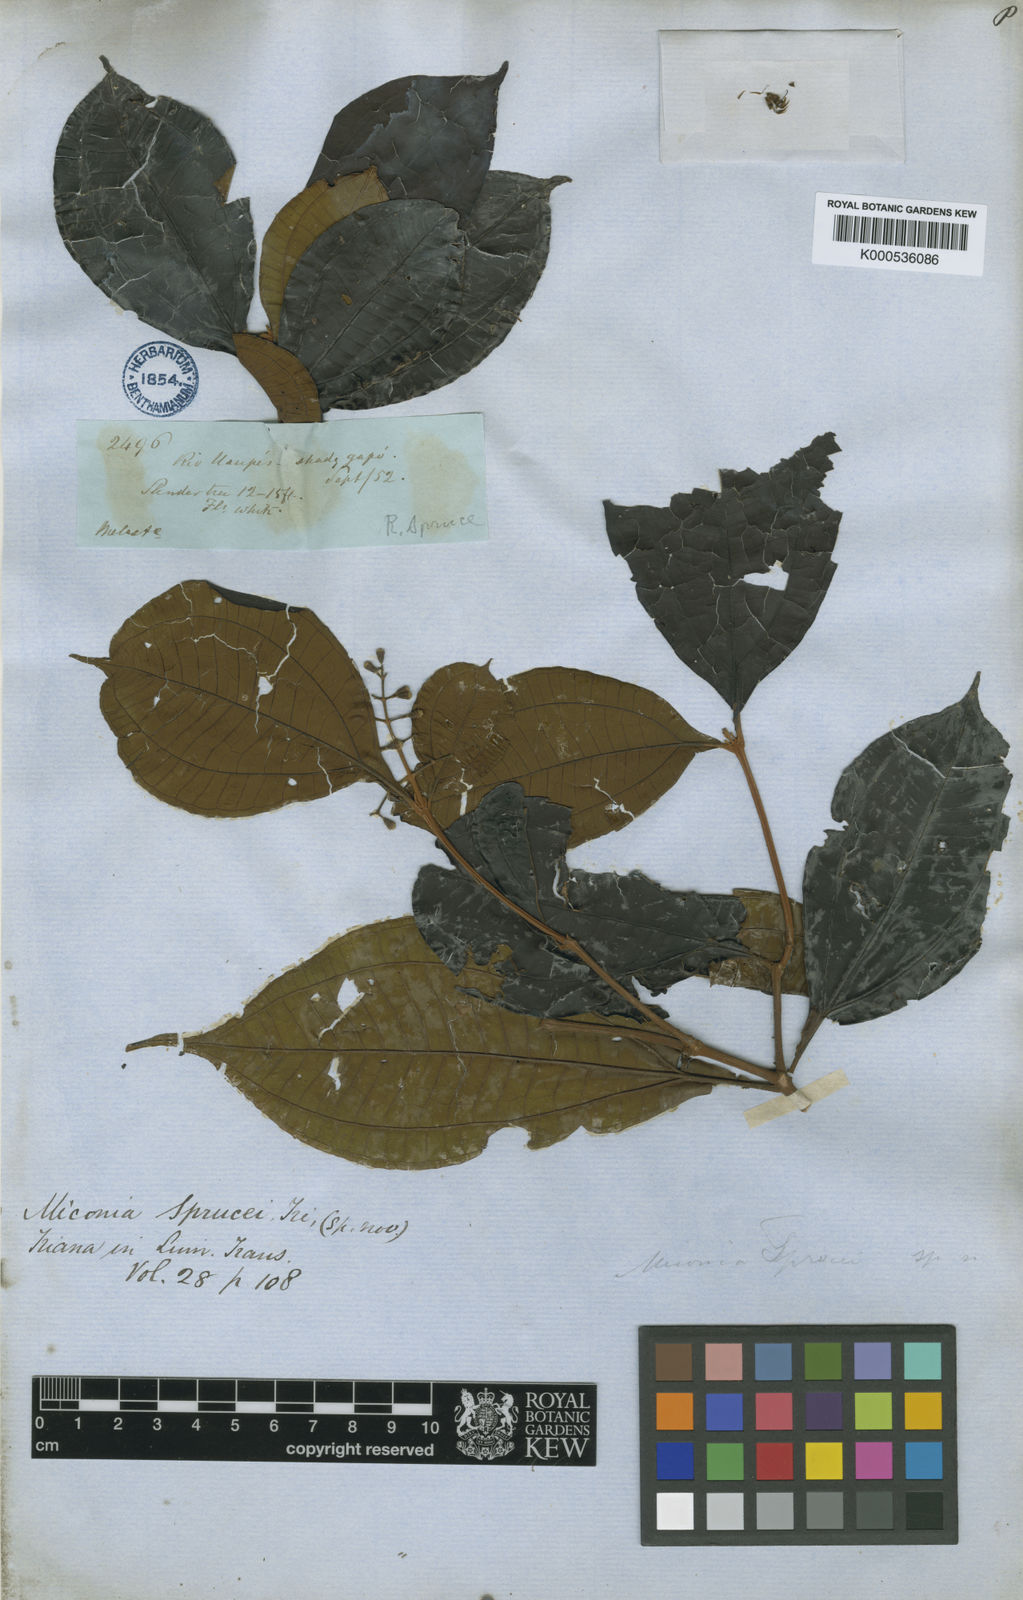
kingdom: Plantae
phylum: Tracheophyta
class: Magnoliopsida
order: Myrtales
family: Melastomataceae
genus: Miconia
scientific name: Miconia sprucei
